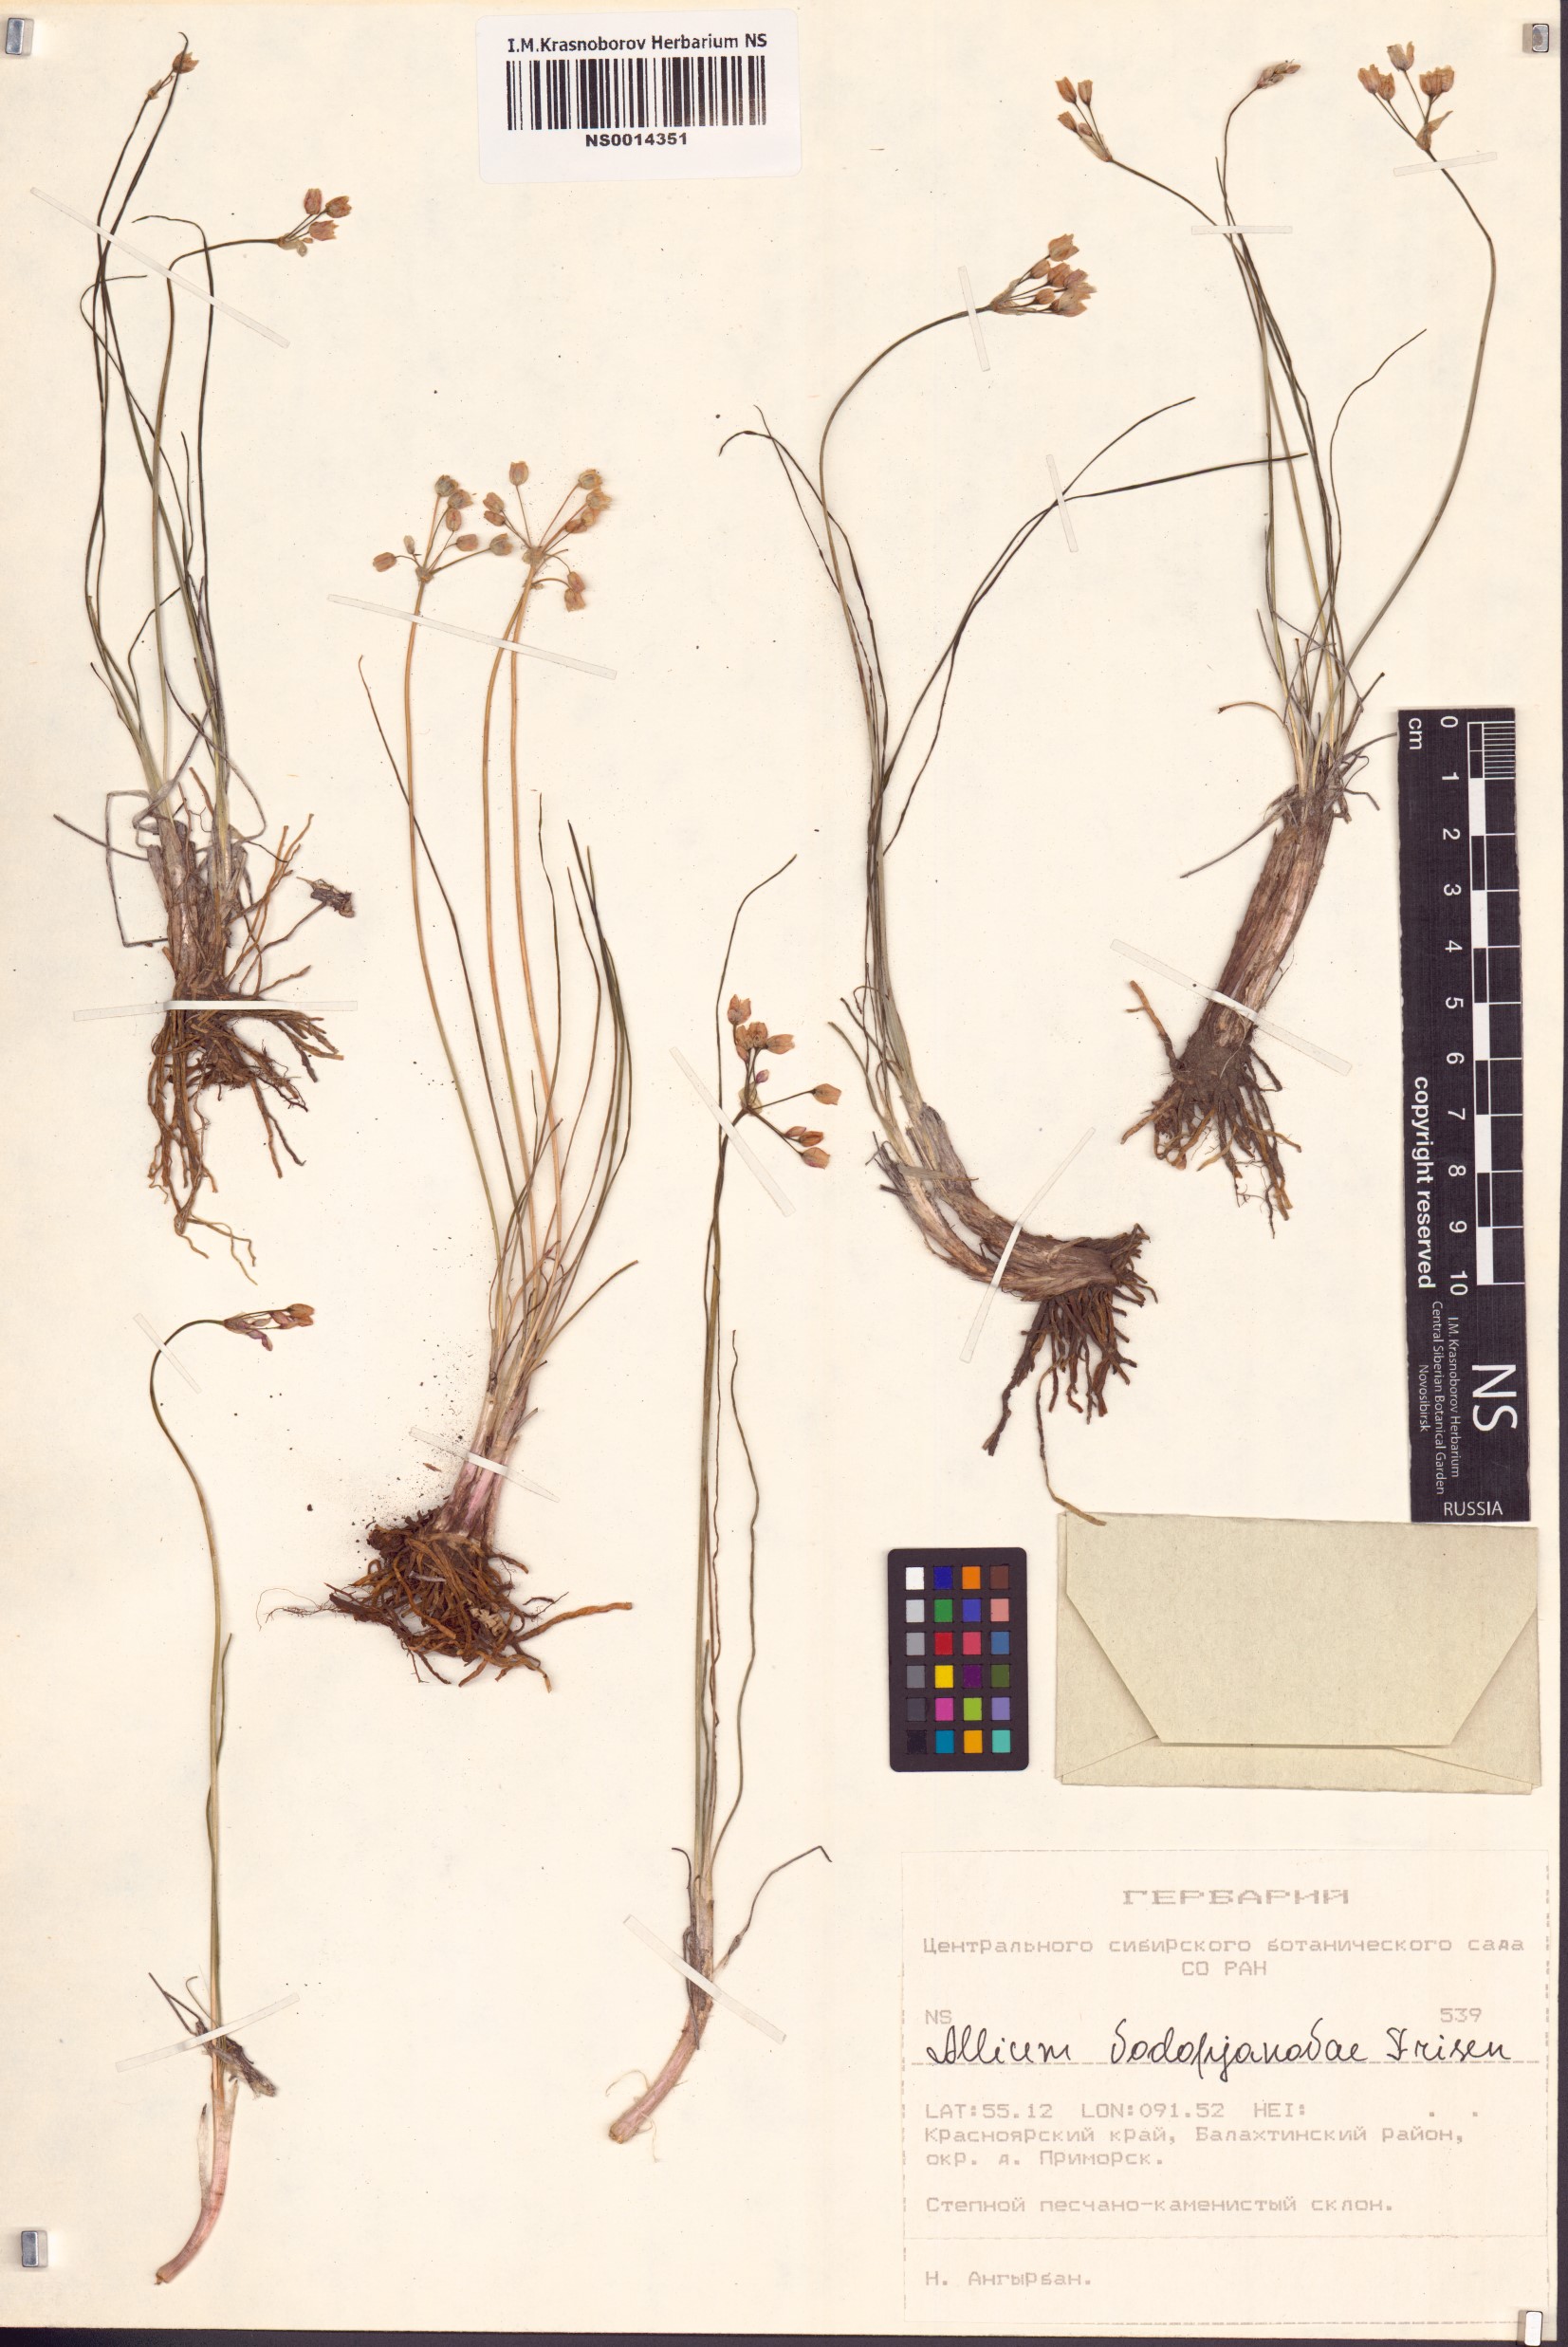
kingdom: Plantae
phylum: Tracheophyta
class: Liliopsida
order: Asparagales
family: Amaryllidaceae
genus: Allium
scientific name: Allium vodopjanovae
